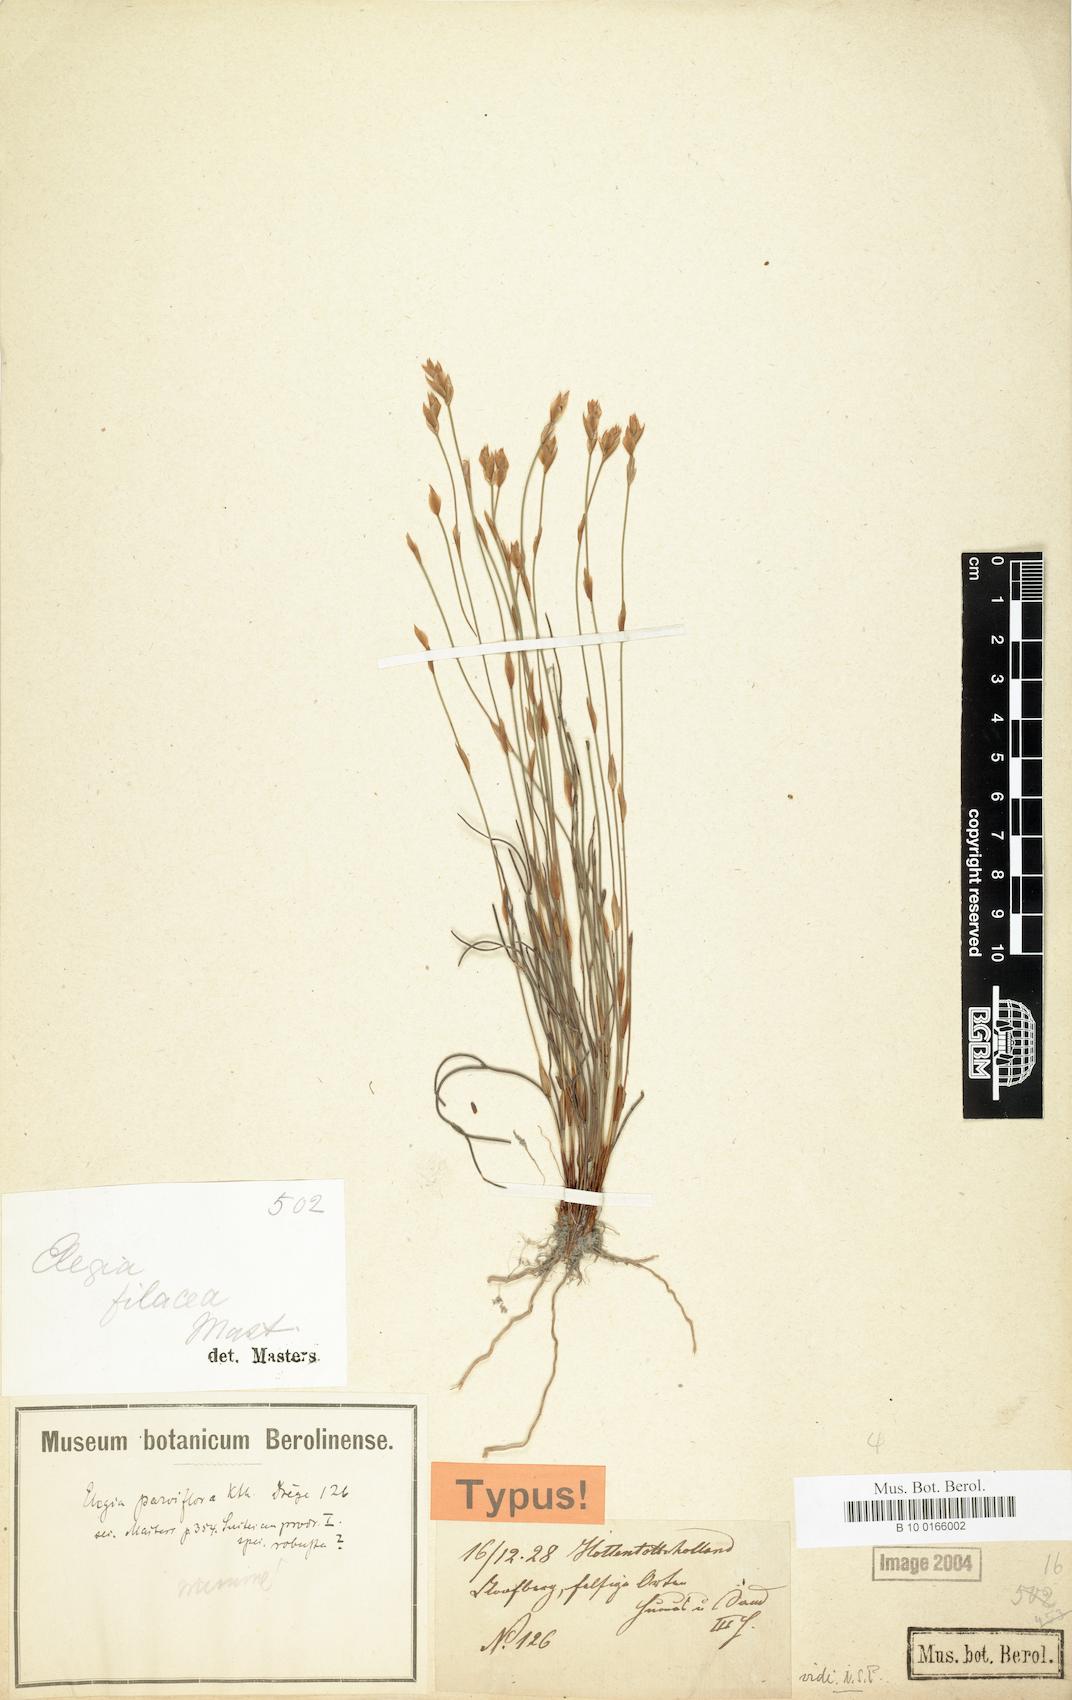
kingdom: Plantae
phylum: Tracheophyta
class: Liliopsida
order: Poales
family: Restionaceae
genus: Elegia
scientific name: Elegia filacea
